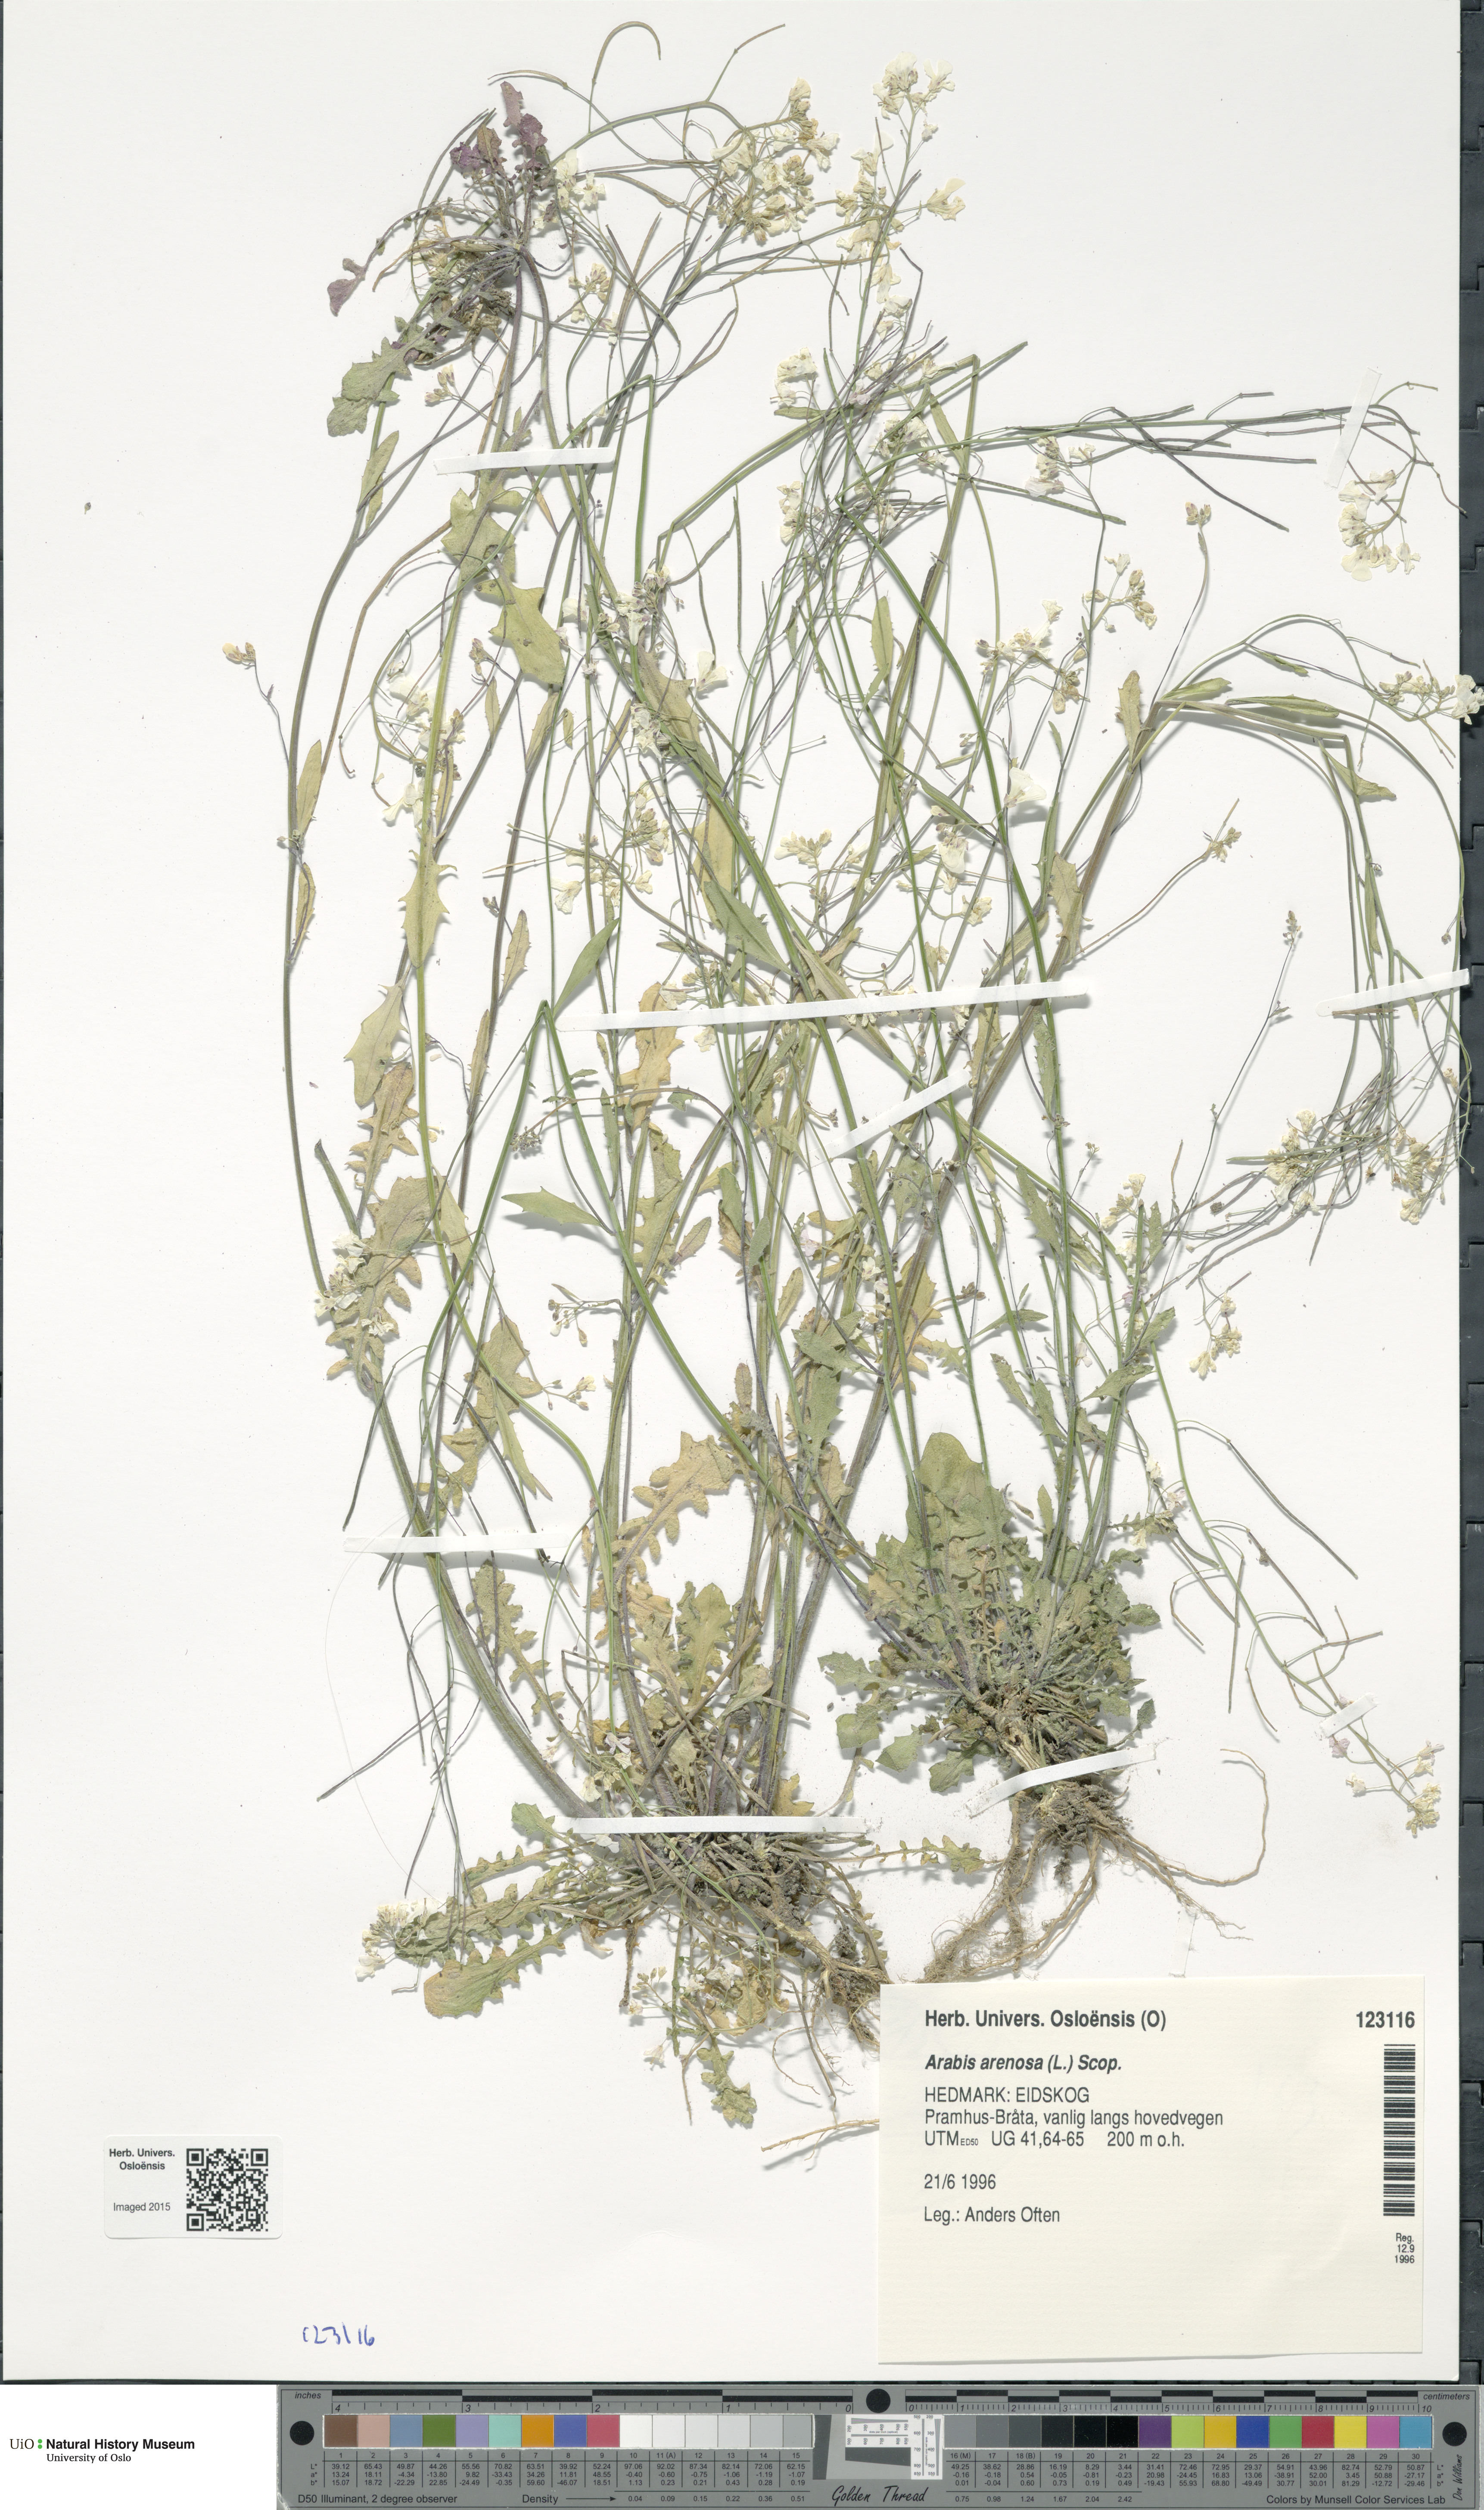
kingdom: Plantae
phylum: Tracheophyta
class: Magnoliopsida
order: Brassicales
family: Brassicaceae
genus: Arabidopsis
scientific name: Arabidopsis arenosa
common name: Sand rock-cress
